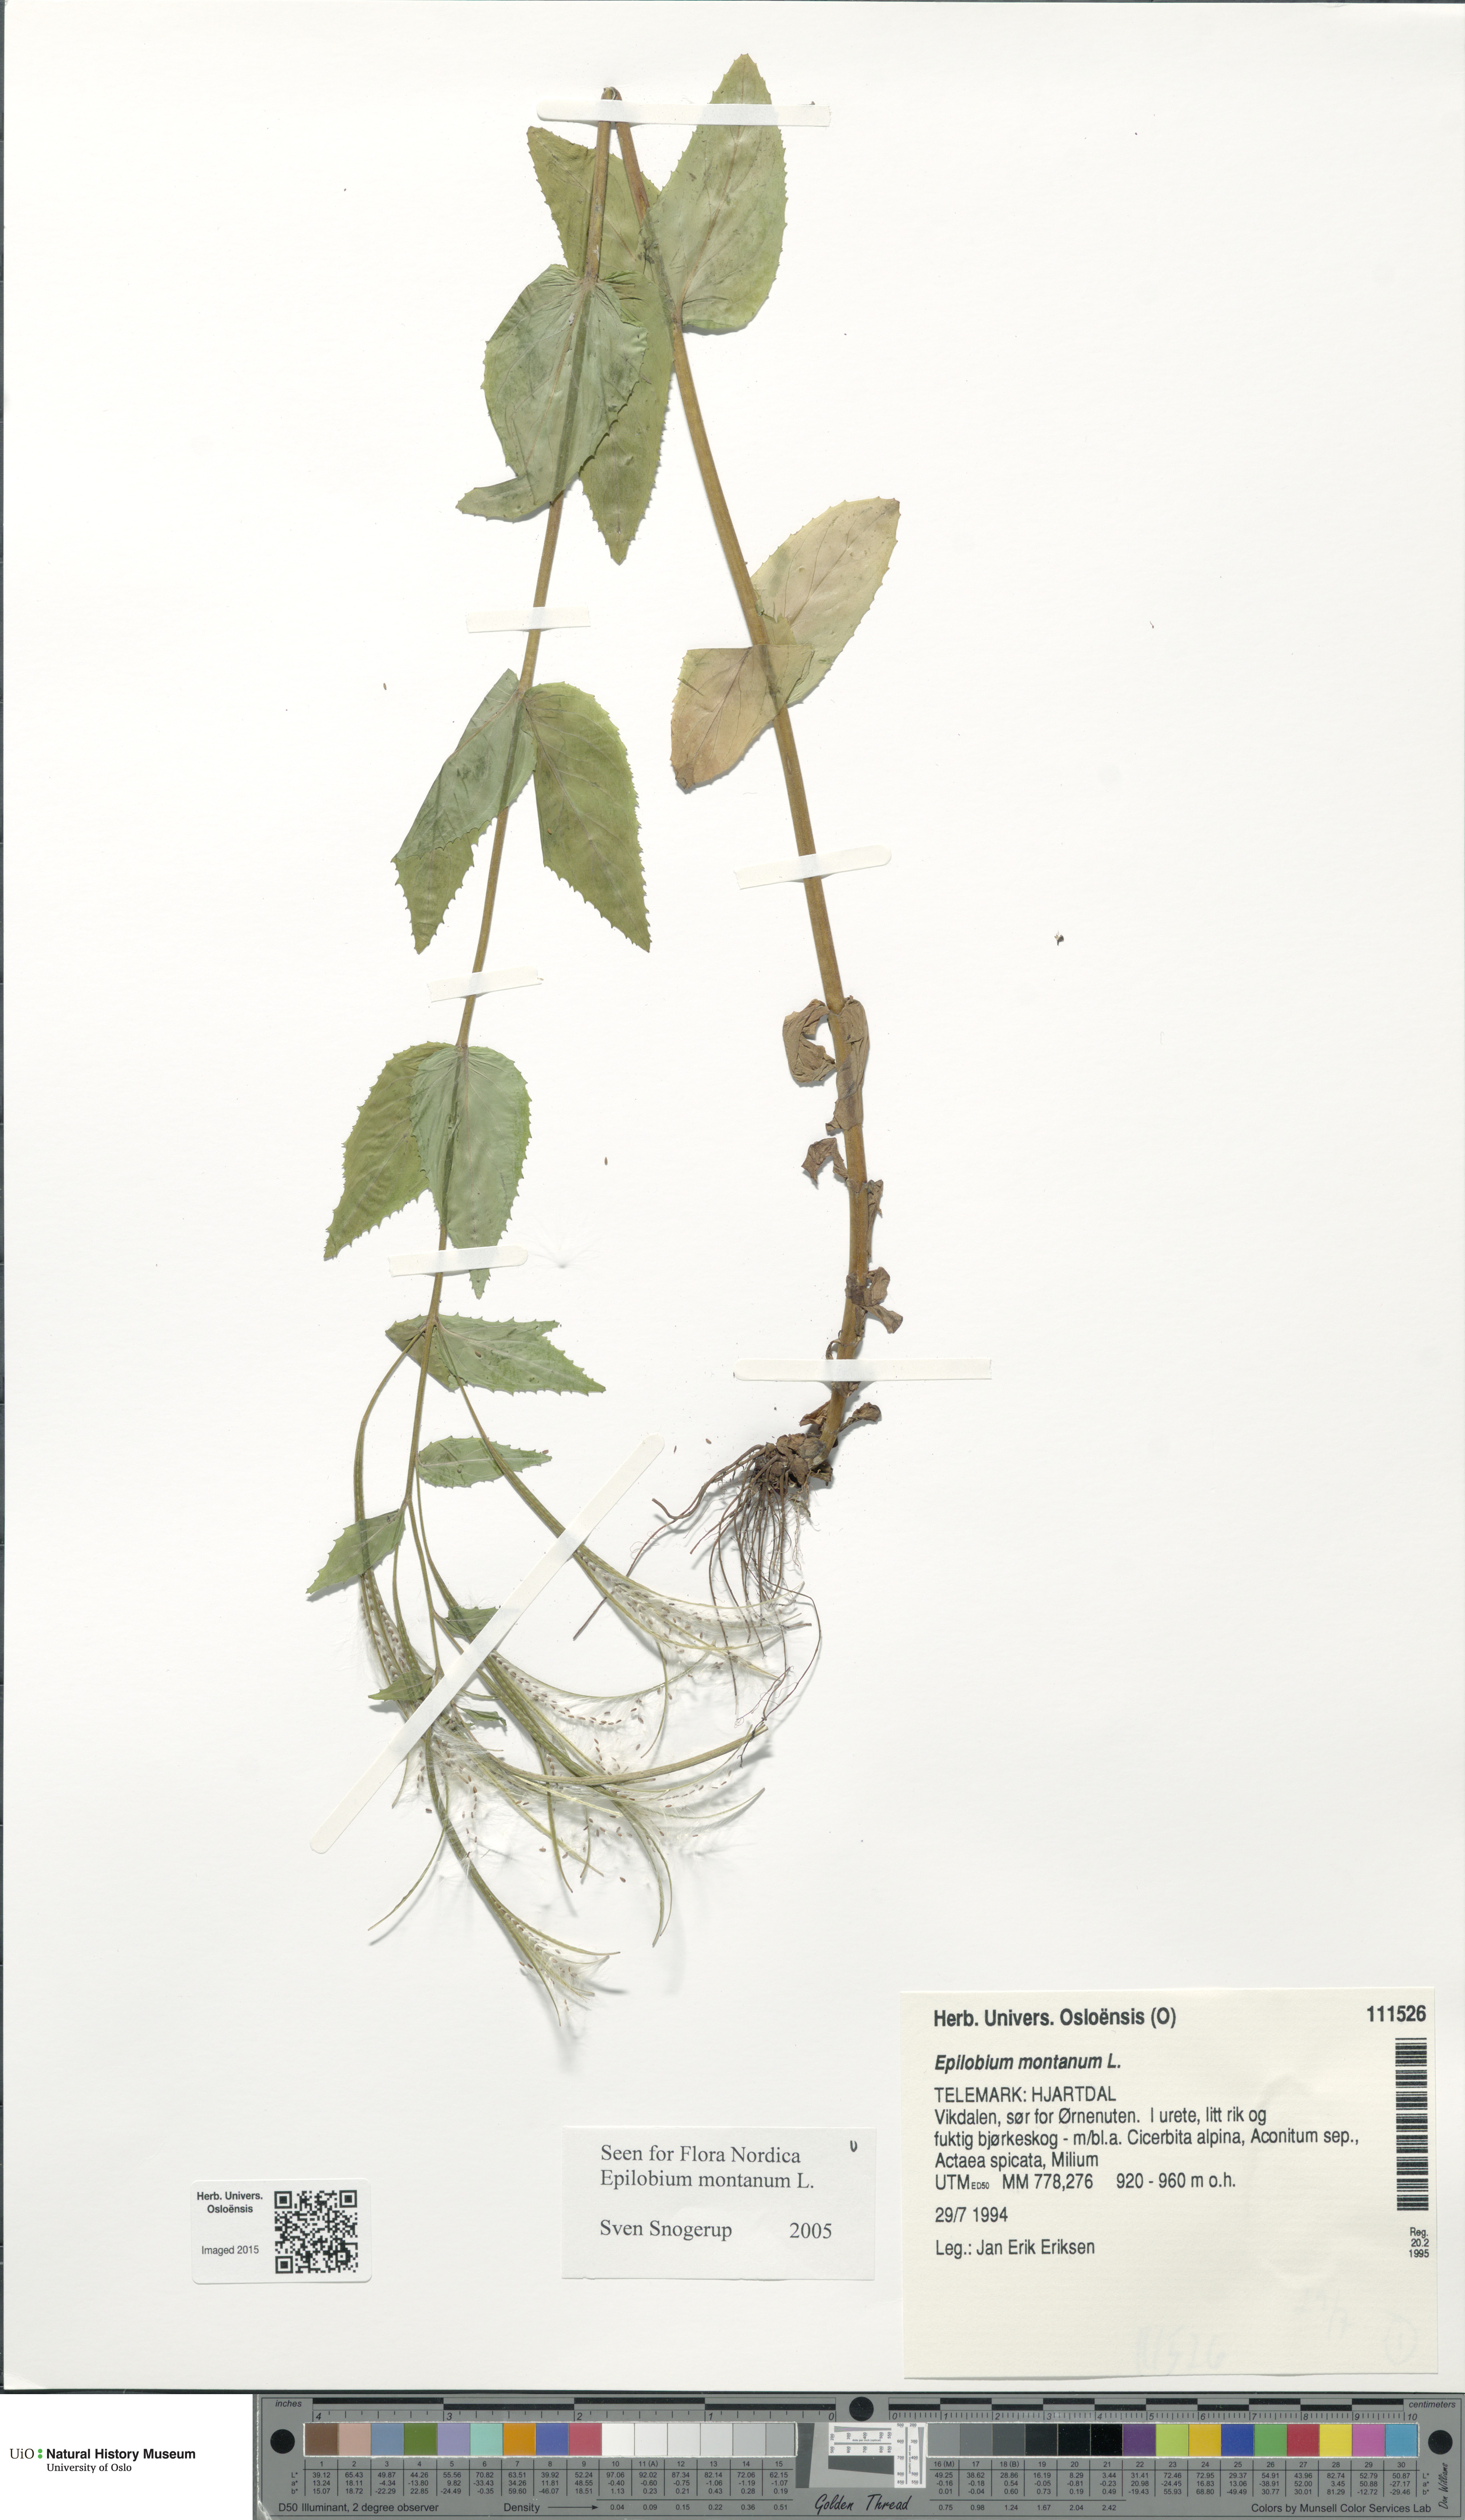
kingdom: Plantae
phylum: Tracheophyta
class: Magnoliopsida
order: Myrtales
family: Onagraceae
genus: Epilobium
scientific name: Epilobium montanum
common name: Broad-leaved willowherb
